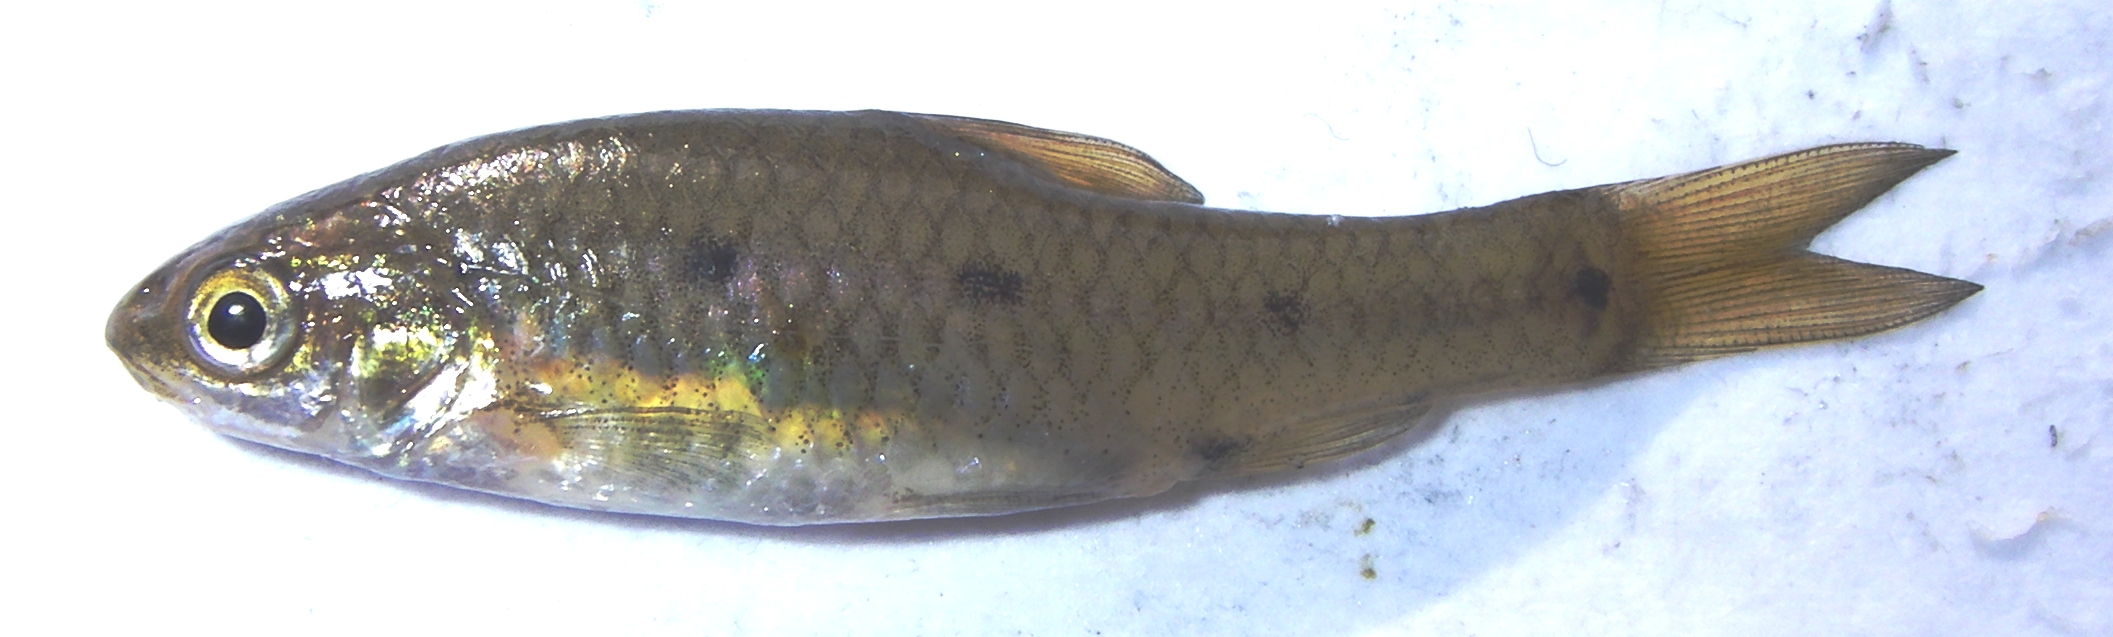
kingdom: Animalia
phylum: Chordata
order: Cypriniformes
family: Cyprinidae
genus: Enteromius
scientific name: Enteromius pallidus
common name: Goldie barb
